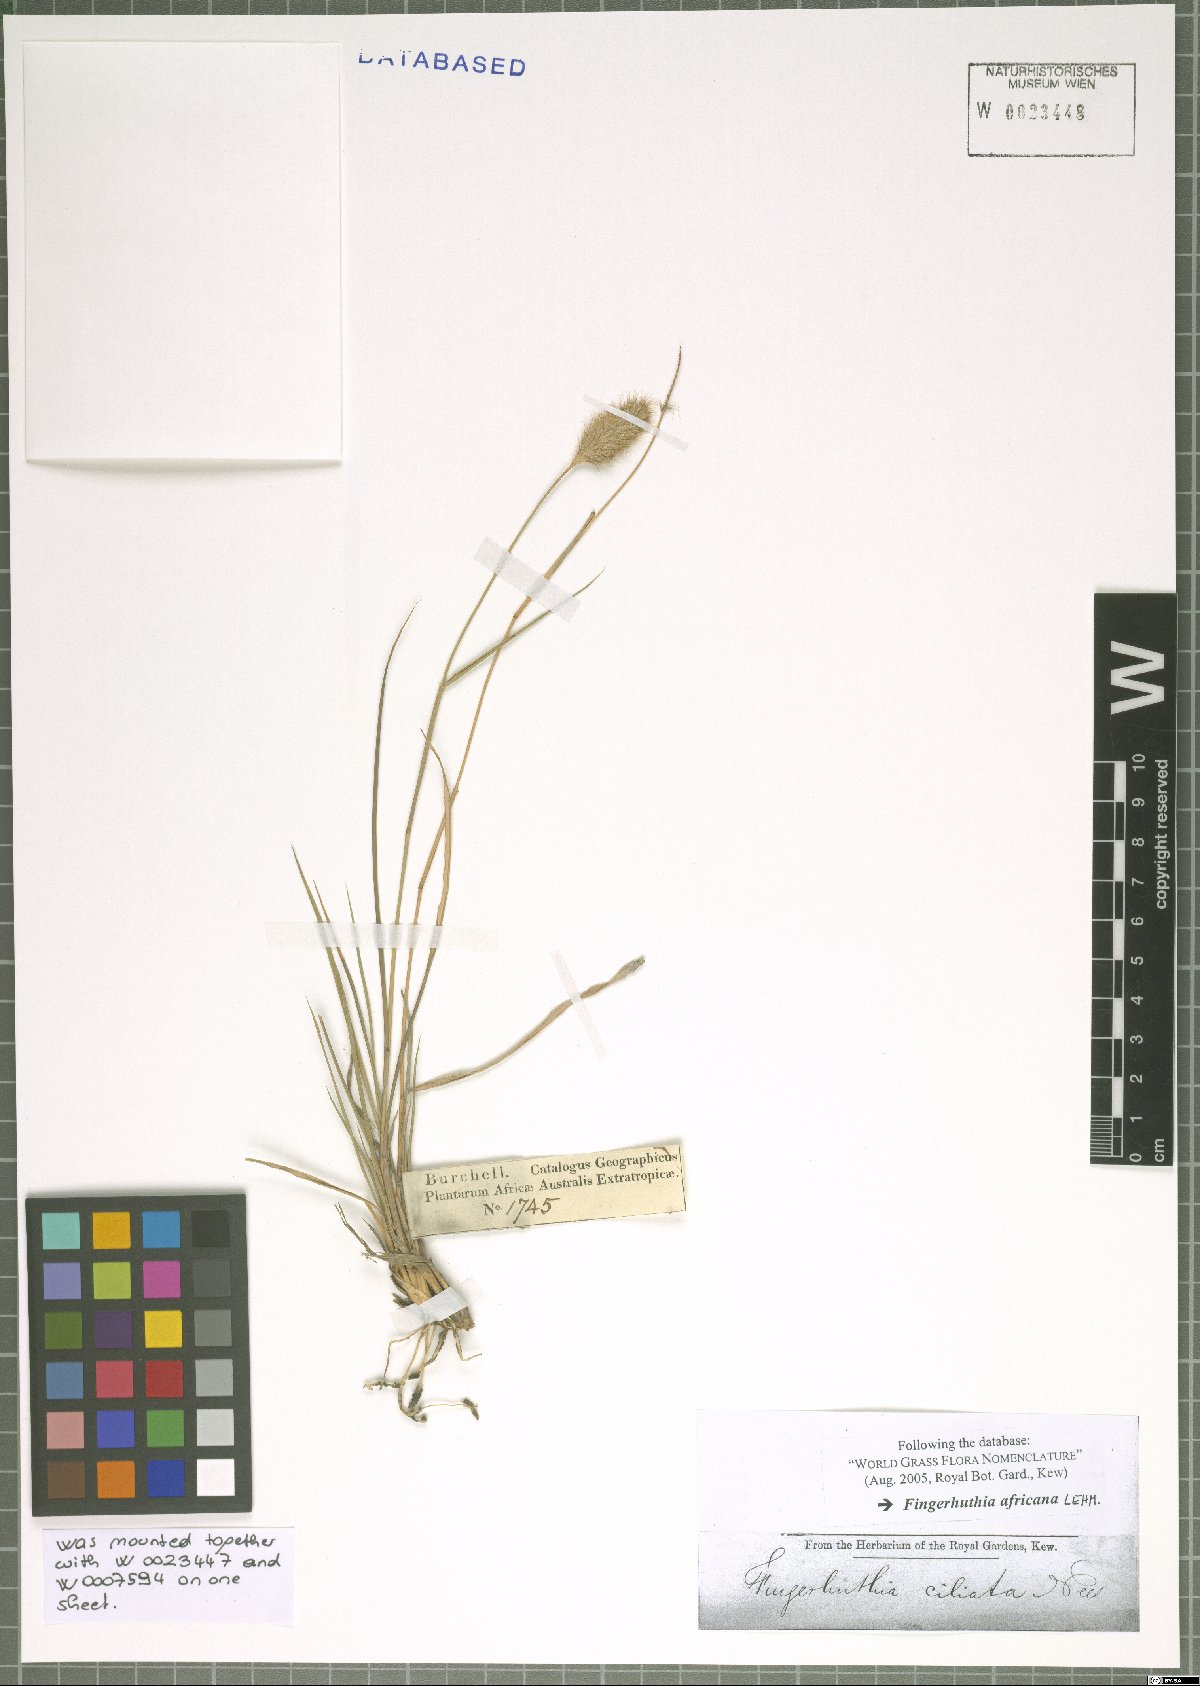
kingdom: Plantae
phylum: Tracheophyta
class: Liliopsida
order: Poales
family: Poaceae
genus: Fingerhuthia
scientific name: Fingerhuthia africana
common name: Zulu fescue
